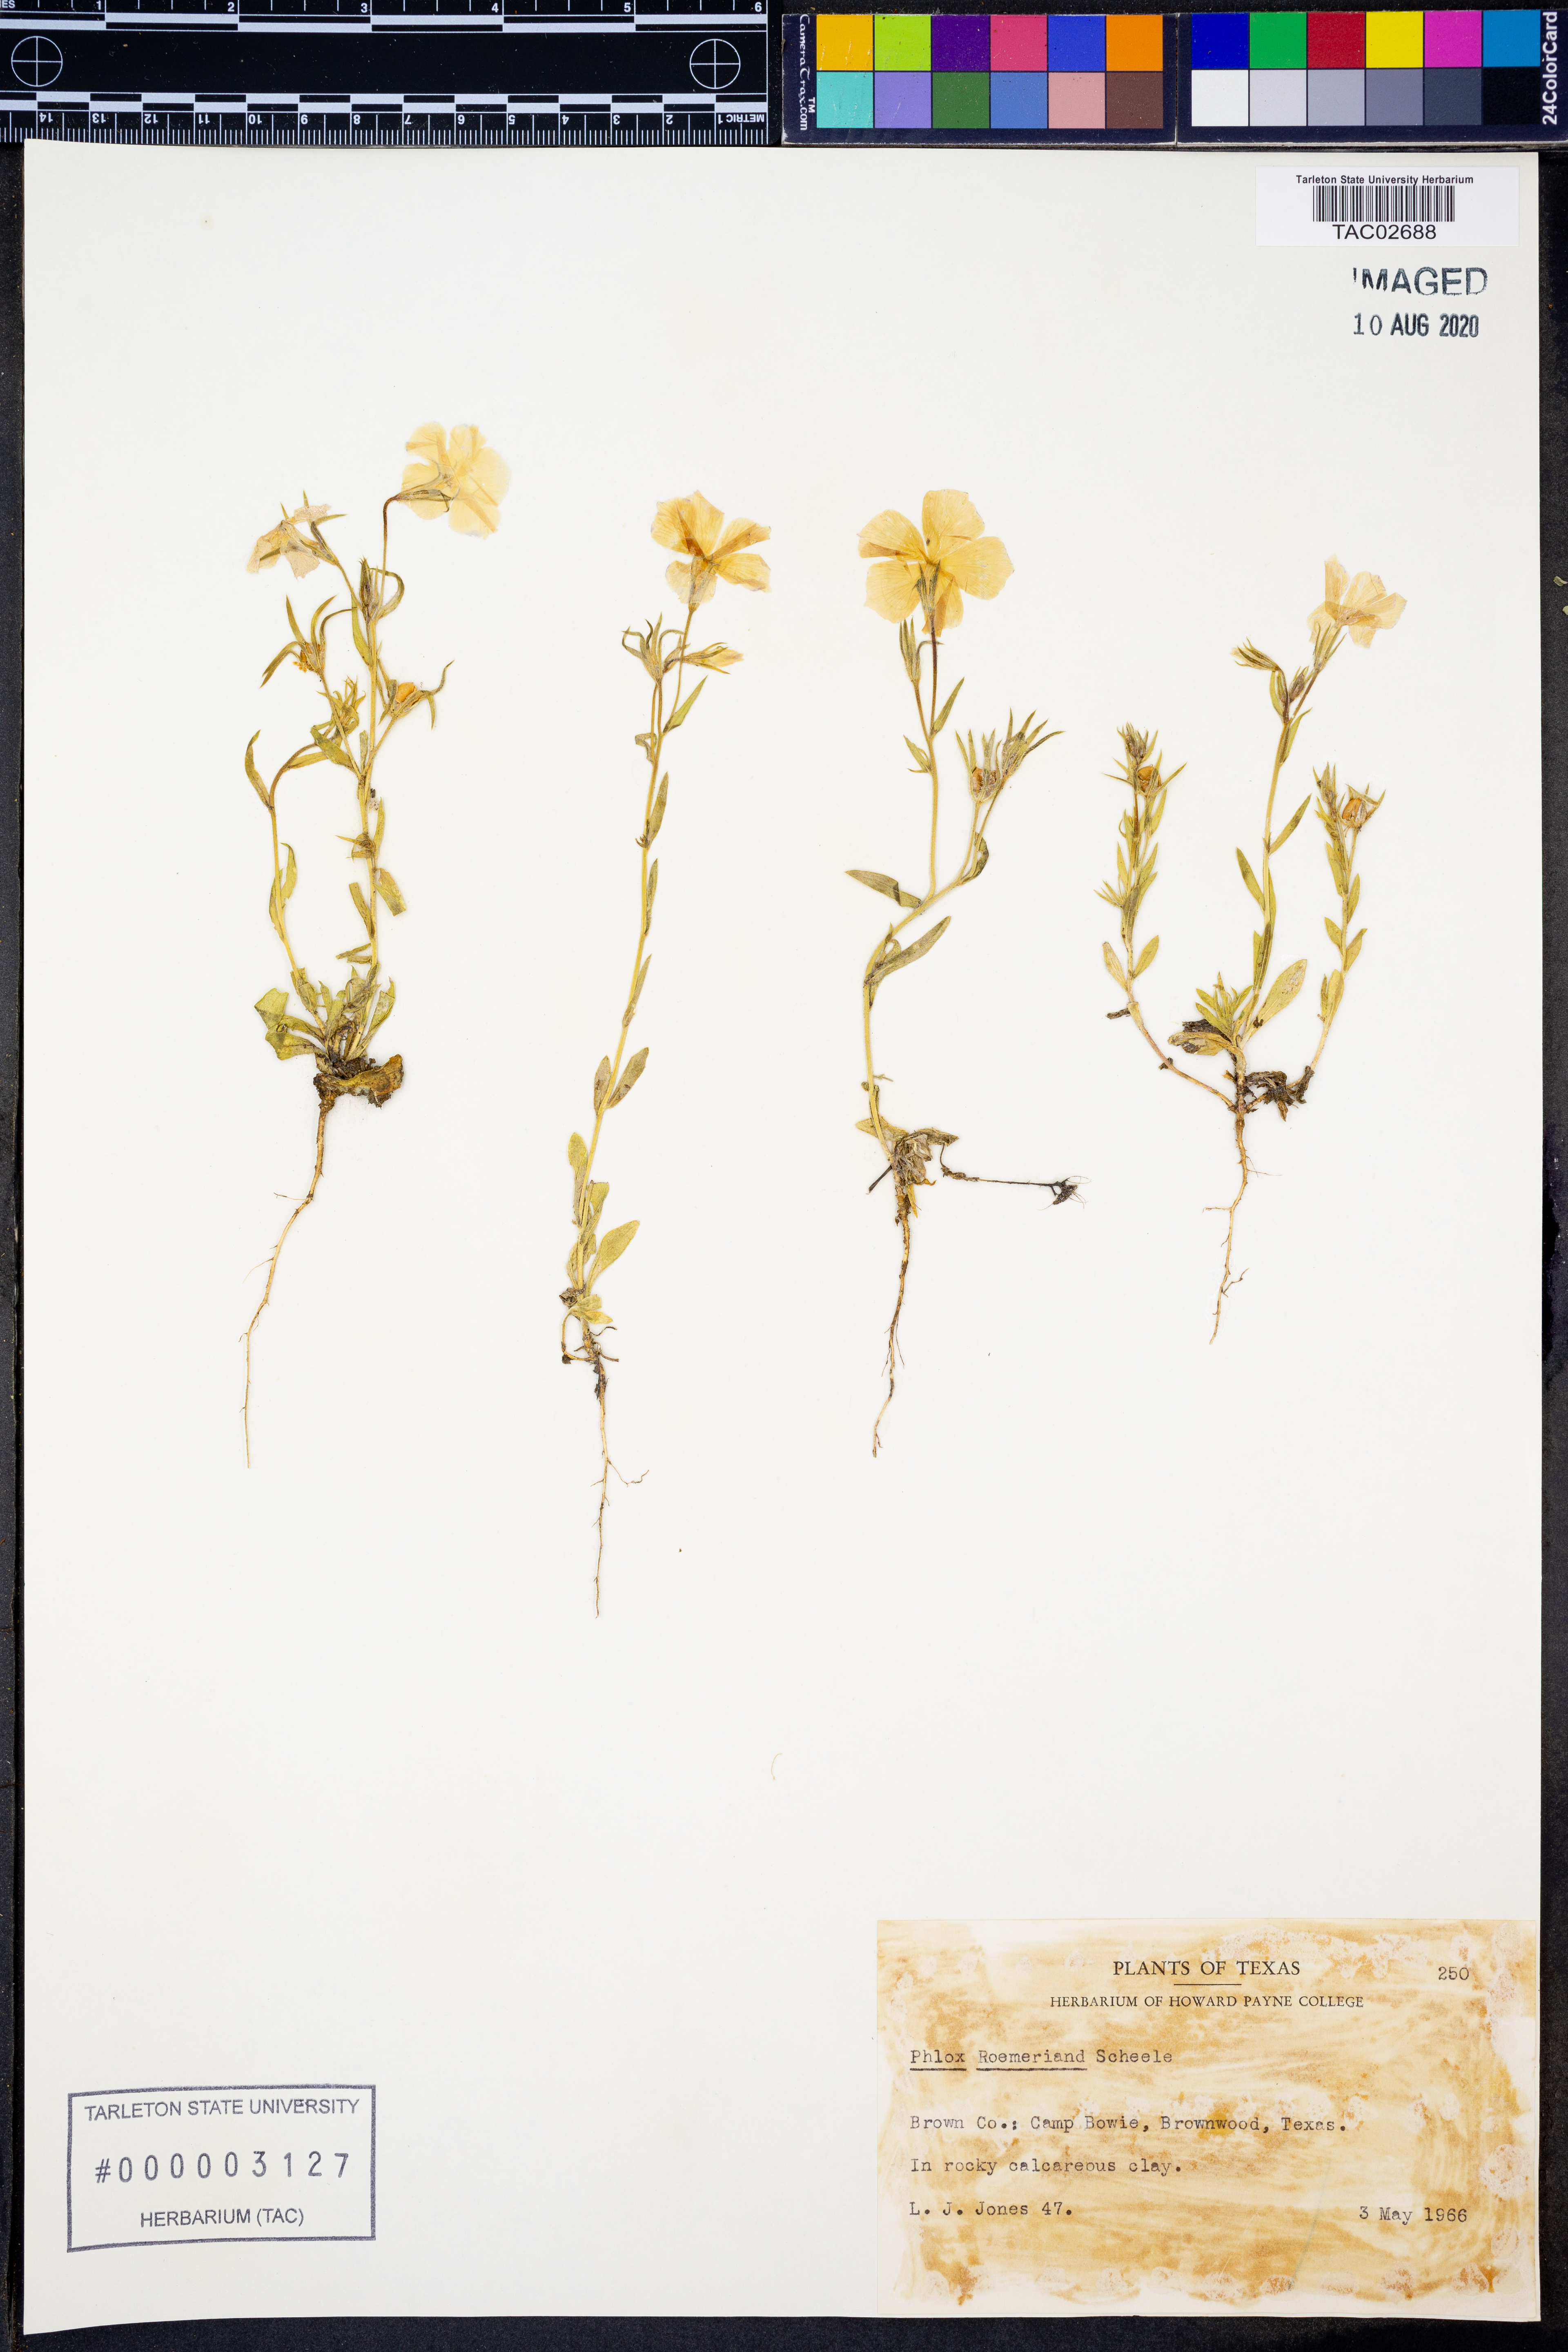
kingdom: Plantae
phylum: Tracheophyta
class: Magnoliopsida
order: Ericales
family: Polemoniaceae
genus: Phlox
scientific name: Phlox roemeriana
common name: Roemer's phlox
